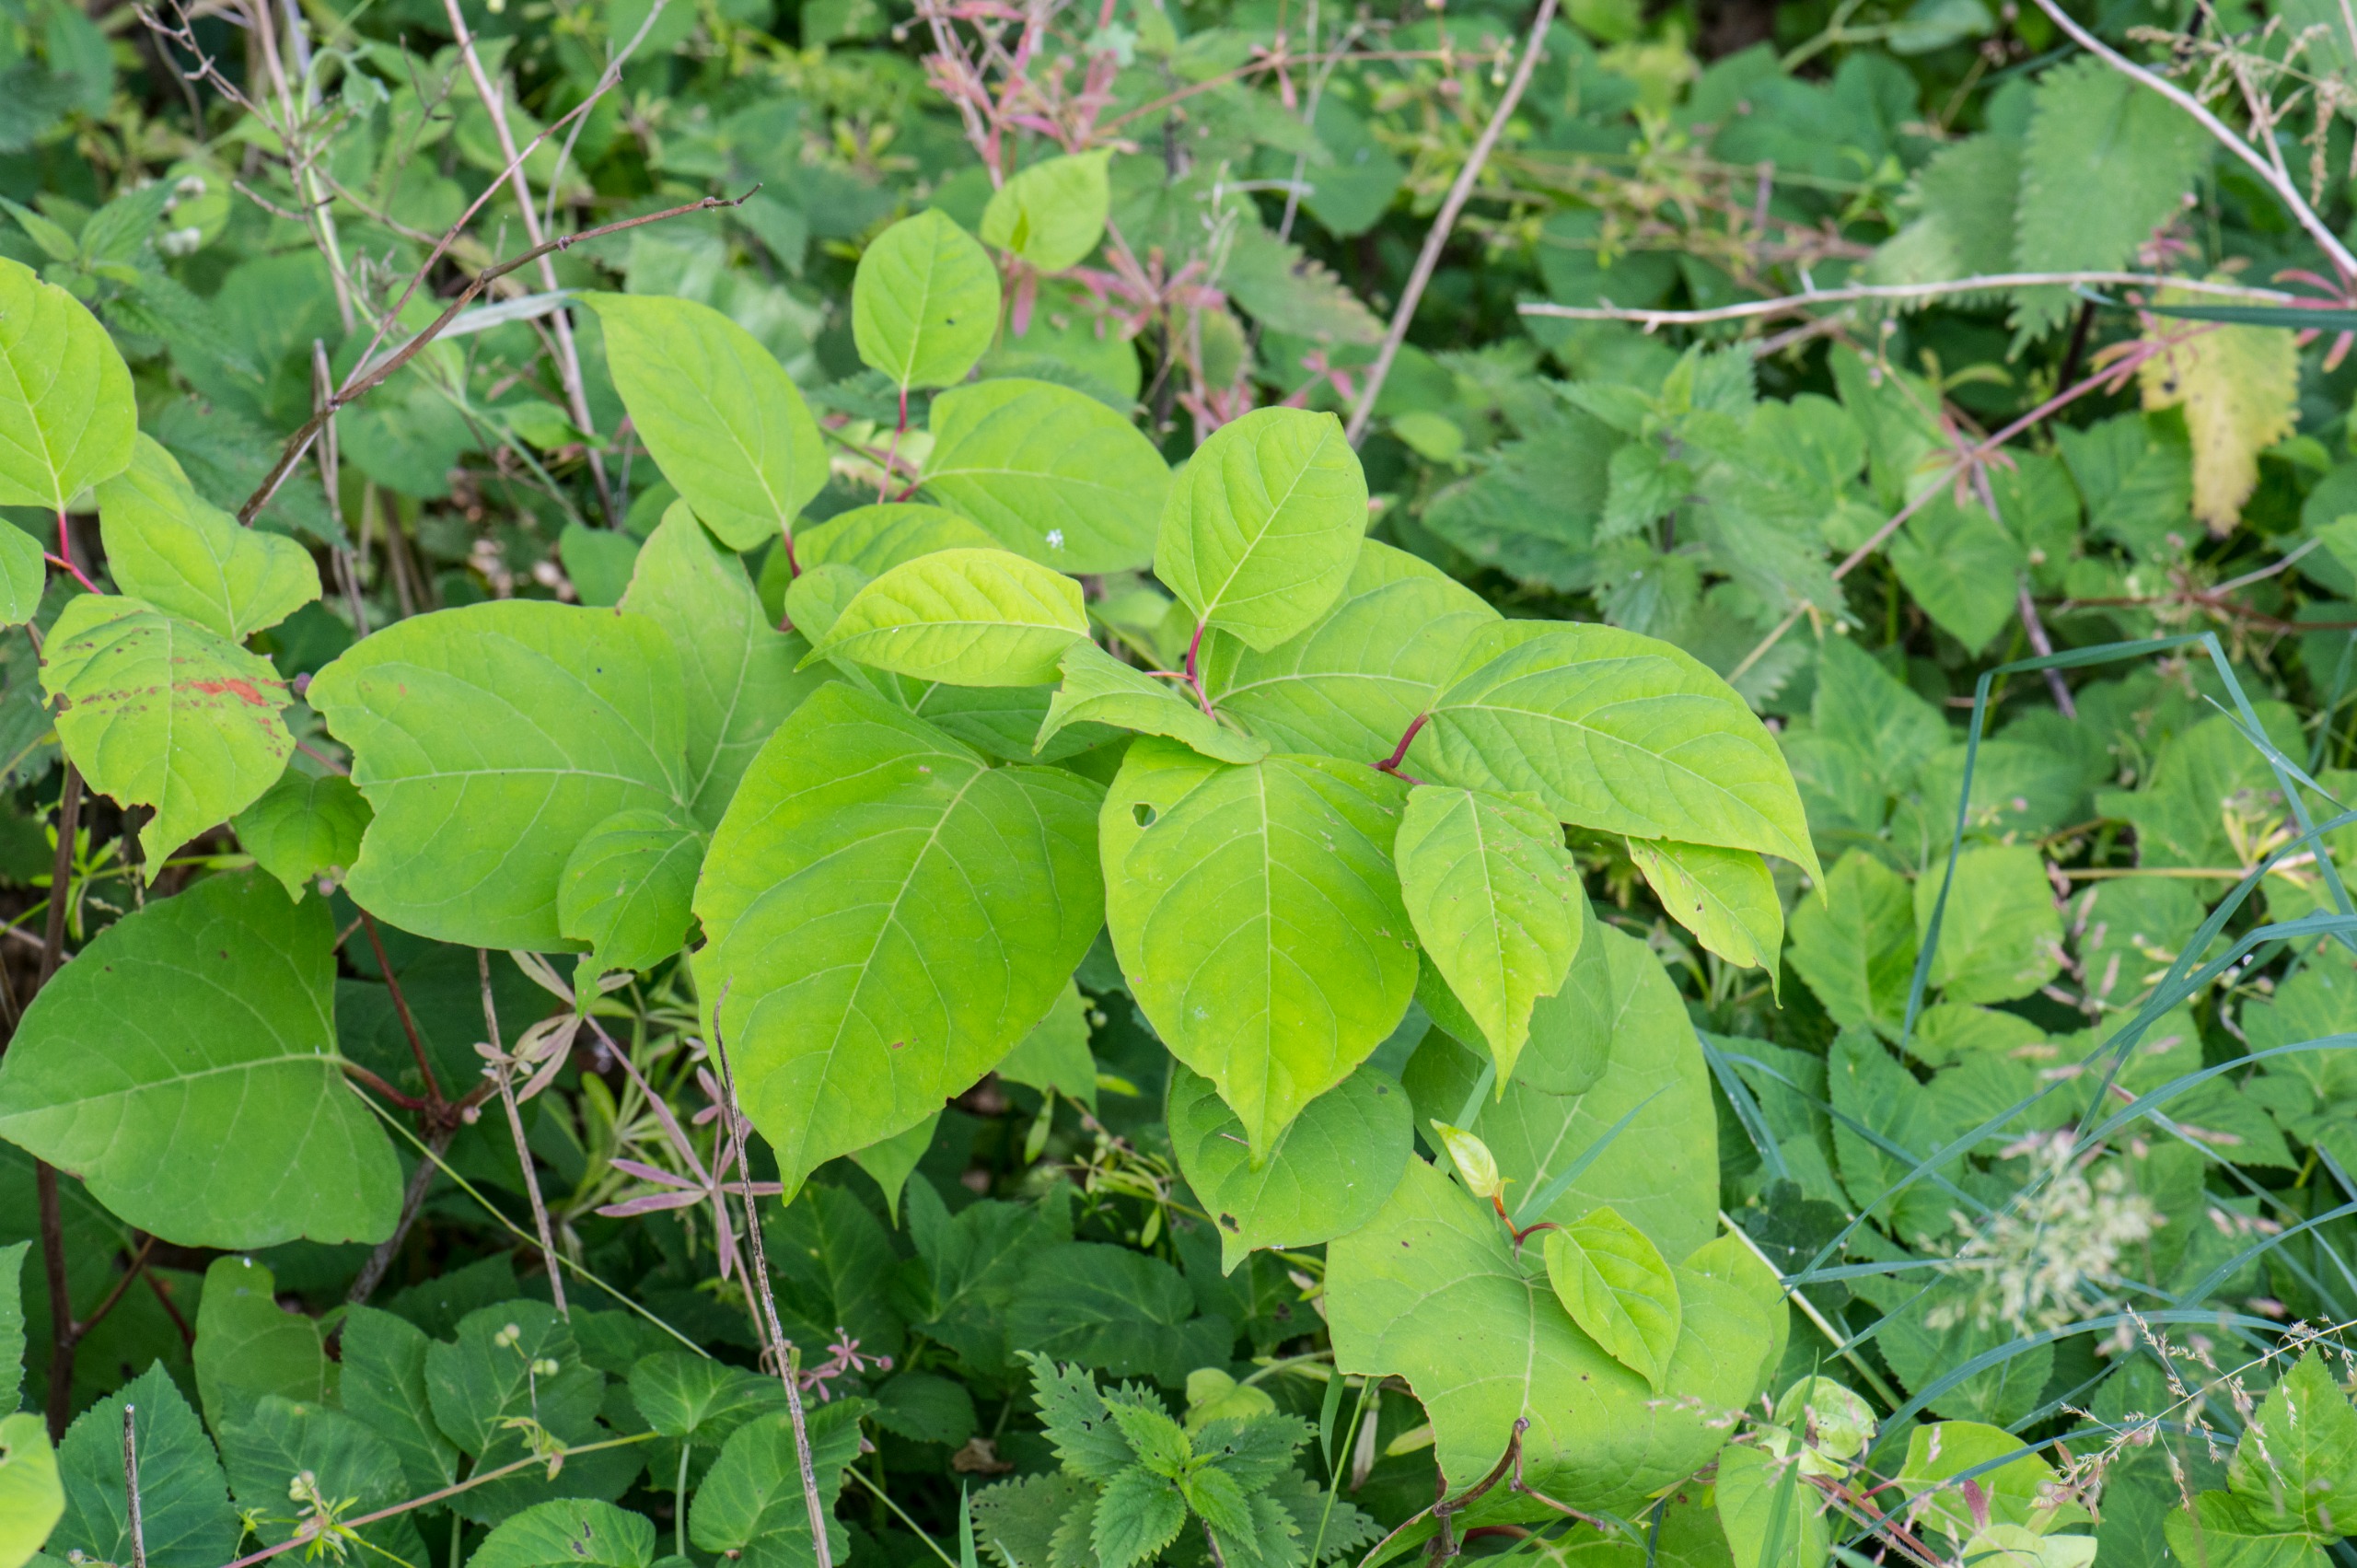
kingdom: Plantae
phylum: Tracheophyta
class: Magnoliopsida
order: Caryophyllales
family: Polygonaceae
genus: Reynoutria
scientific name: Reynoutria japonica
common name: Japan-pileurt
